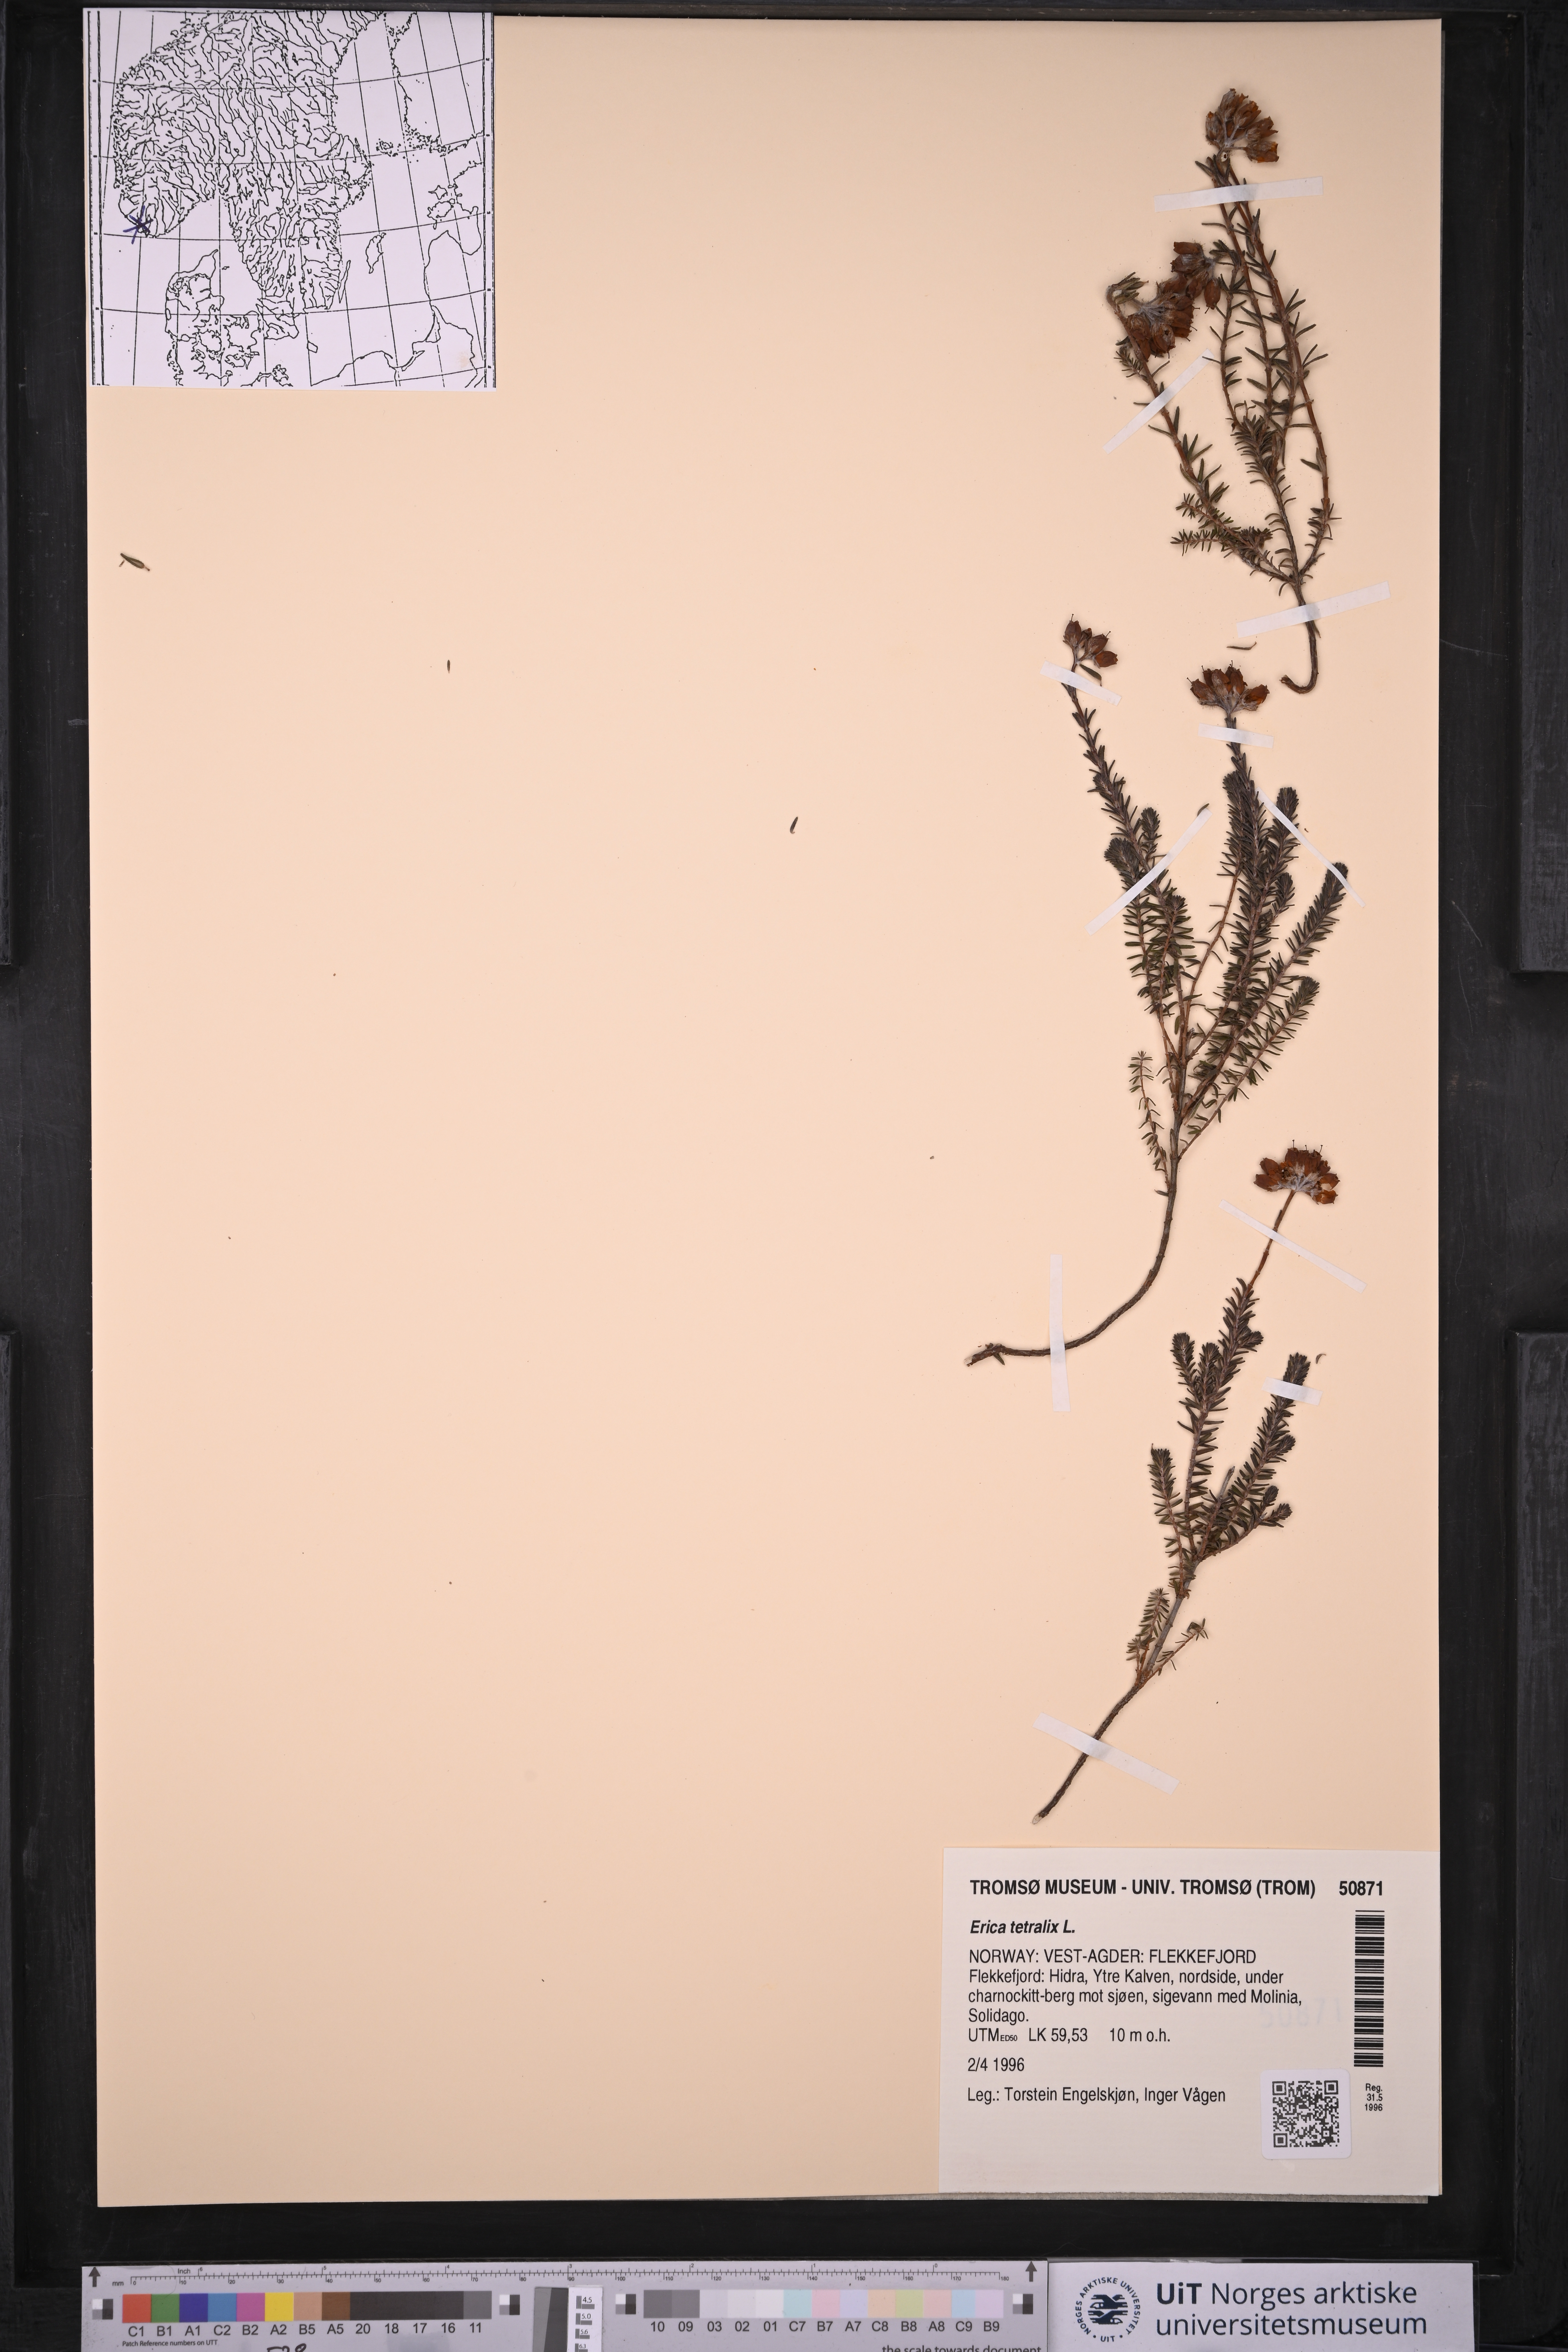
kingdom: Plantae
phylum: Tracheophyta
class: Magnoliopsida
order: Ericales
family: Ericaceae
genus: Erica
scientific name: Erica tetralix
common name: Cross-leaved heath
